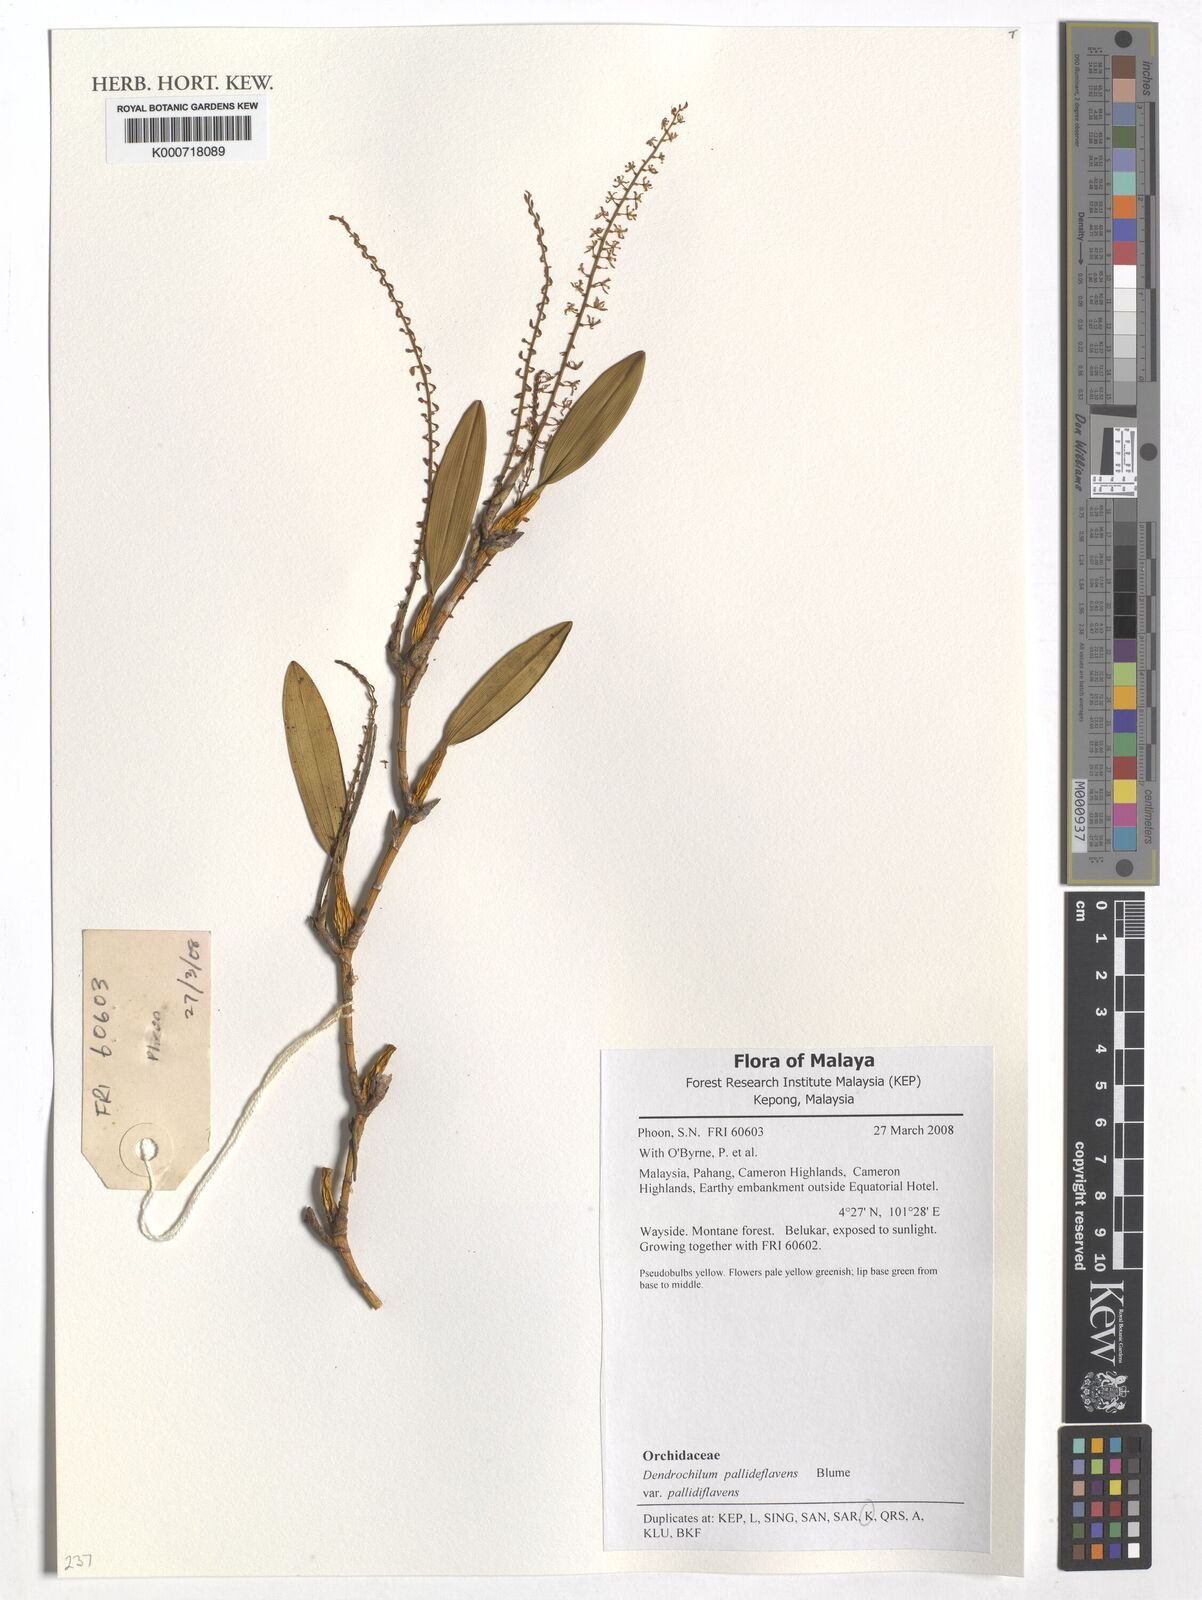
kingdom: Plantae
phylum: Tracheophyta
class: Liliopsida
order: Asparagales
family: Orchidaceae
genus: Coelogyne
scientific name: Coelogyne pallidiflavens
